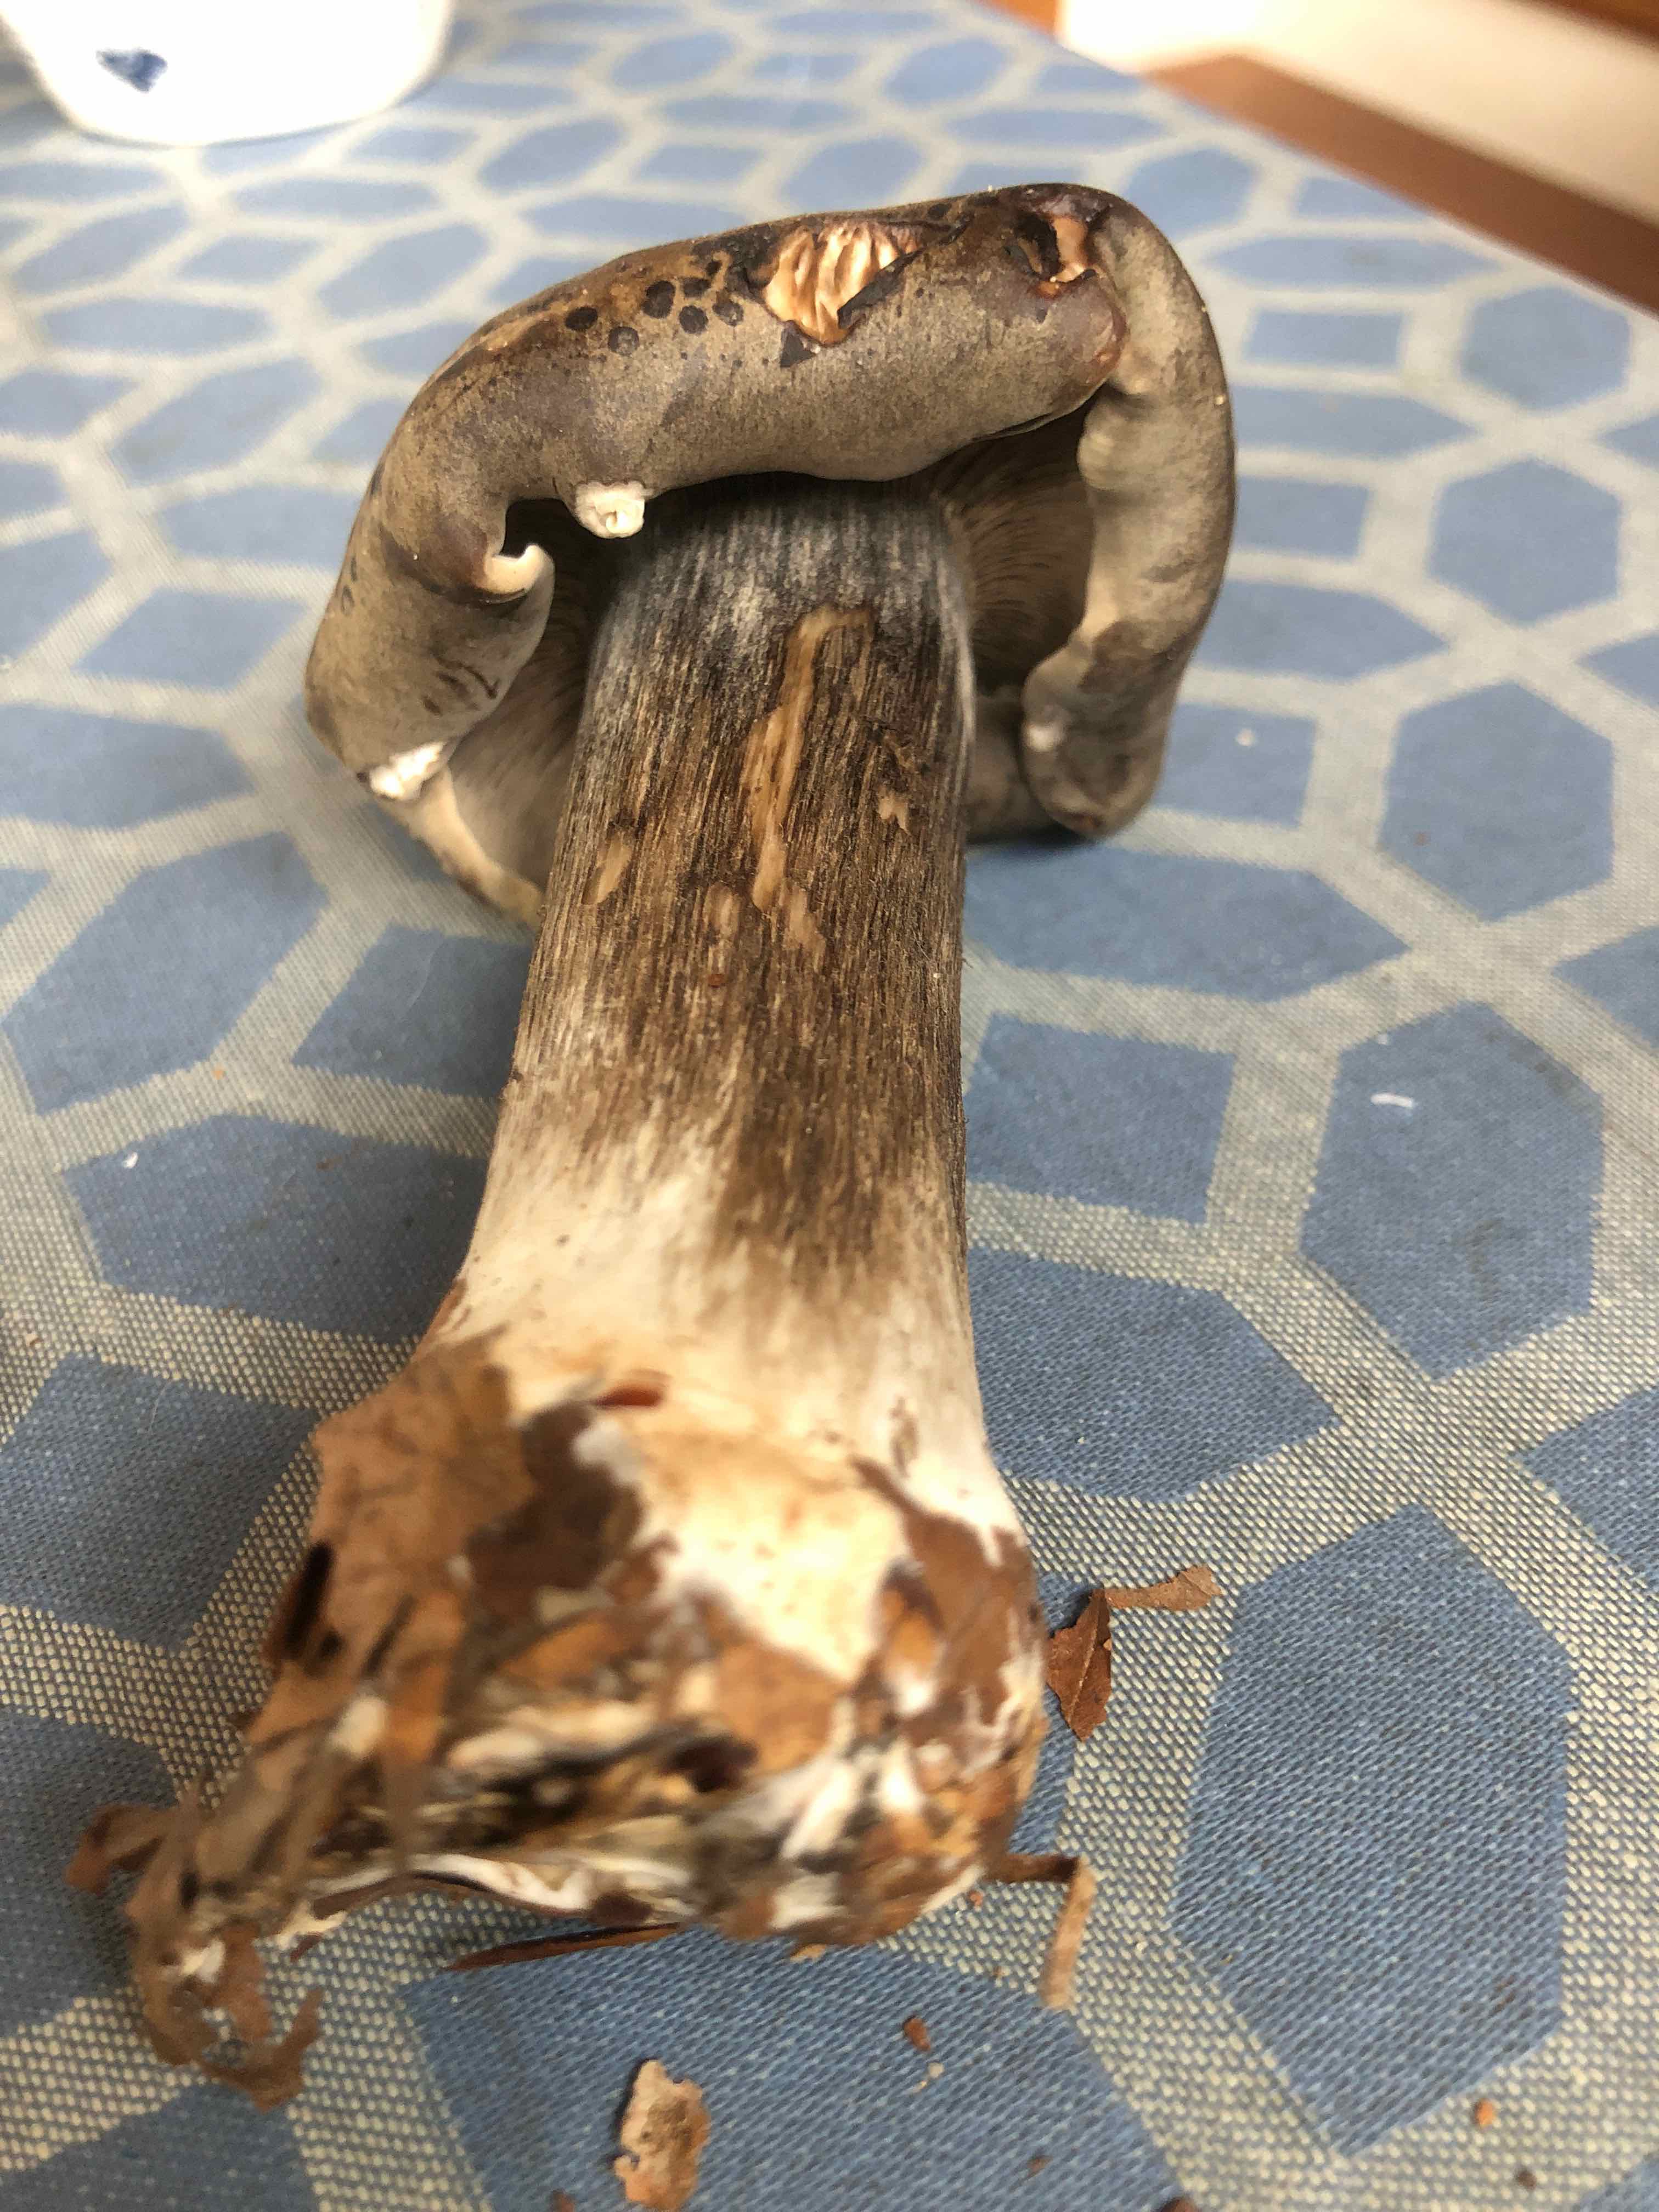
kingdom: Fungi
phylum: Basidiomycota
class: Agaricomycetes
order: Agaricales
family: Tricholomataceae
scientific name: Tricholomataceae
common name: ridderhatfamilien
